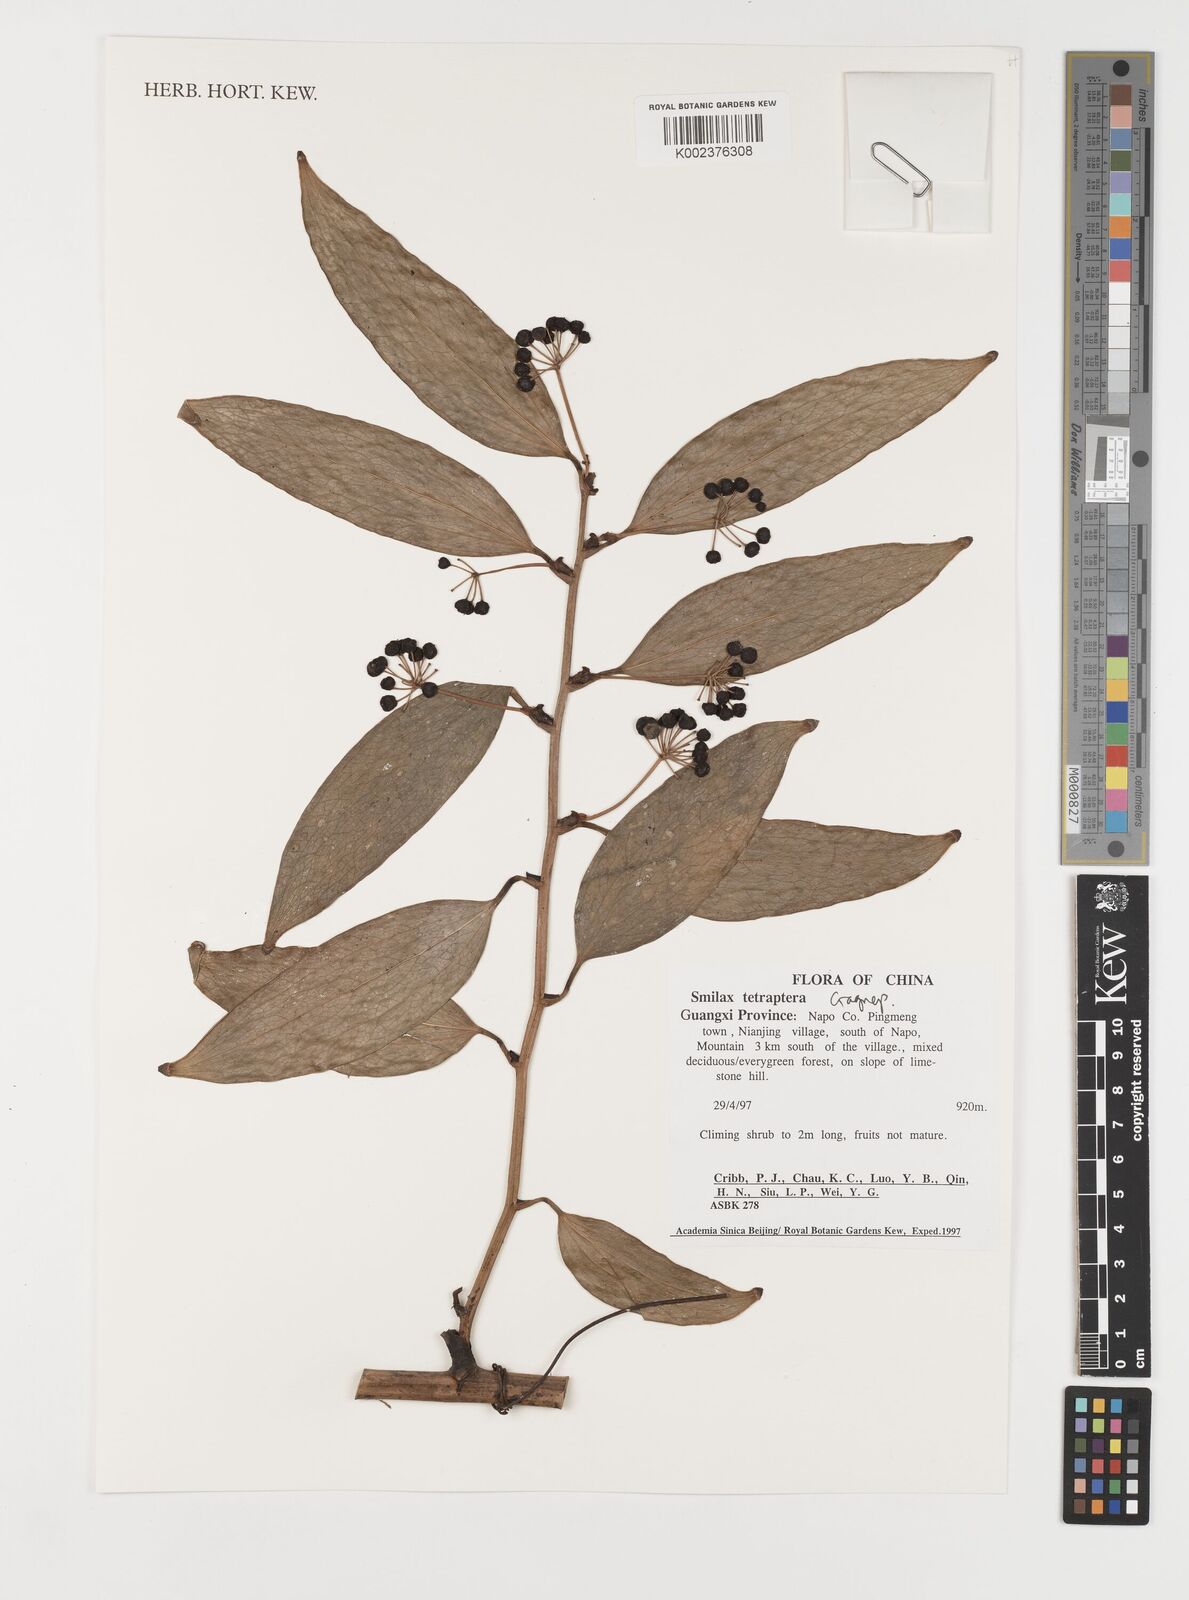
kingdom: Plantae
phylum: Tracheophyta
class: Liliopsida
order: Liliales
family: Smilacaceae
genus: Smilax
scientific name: Smilax tetraptera
